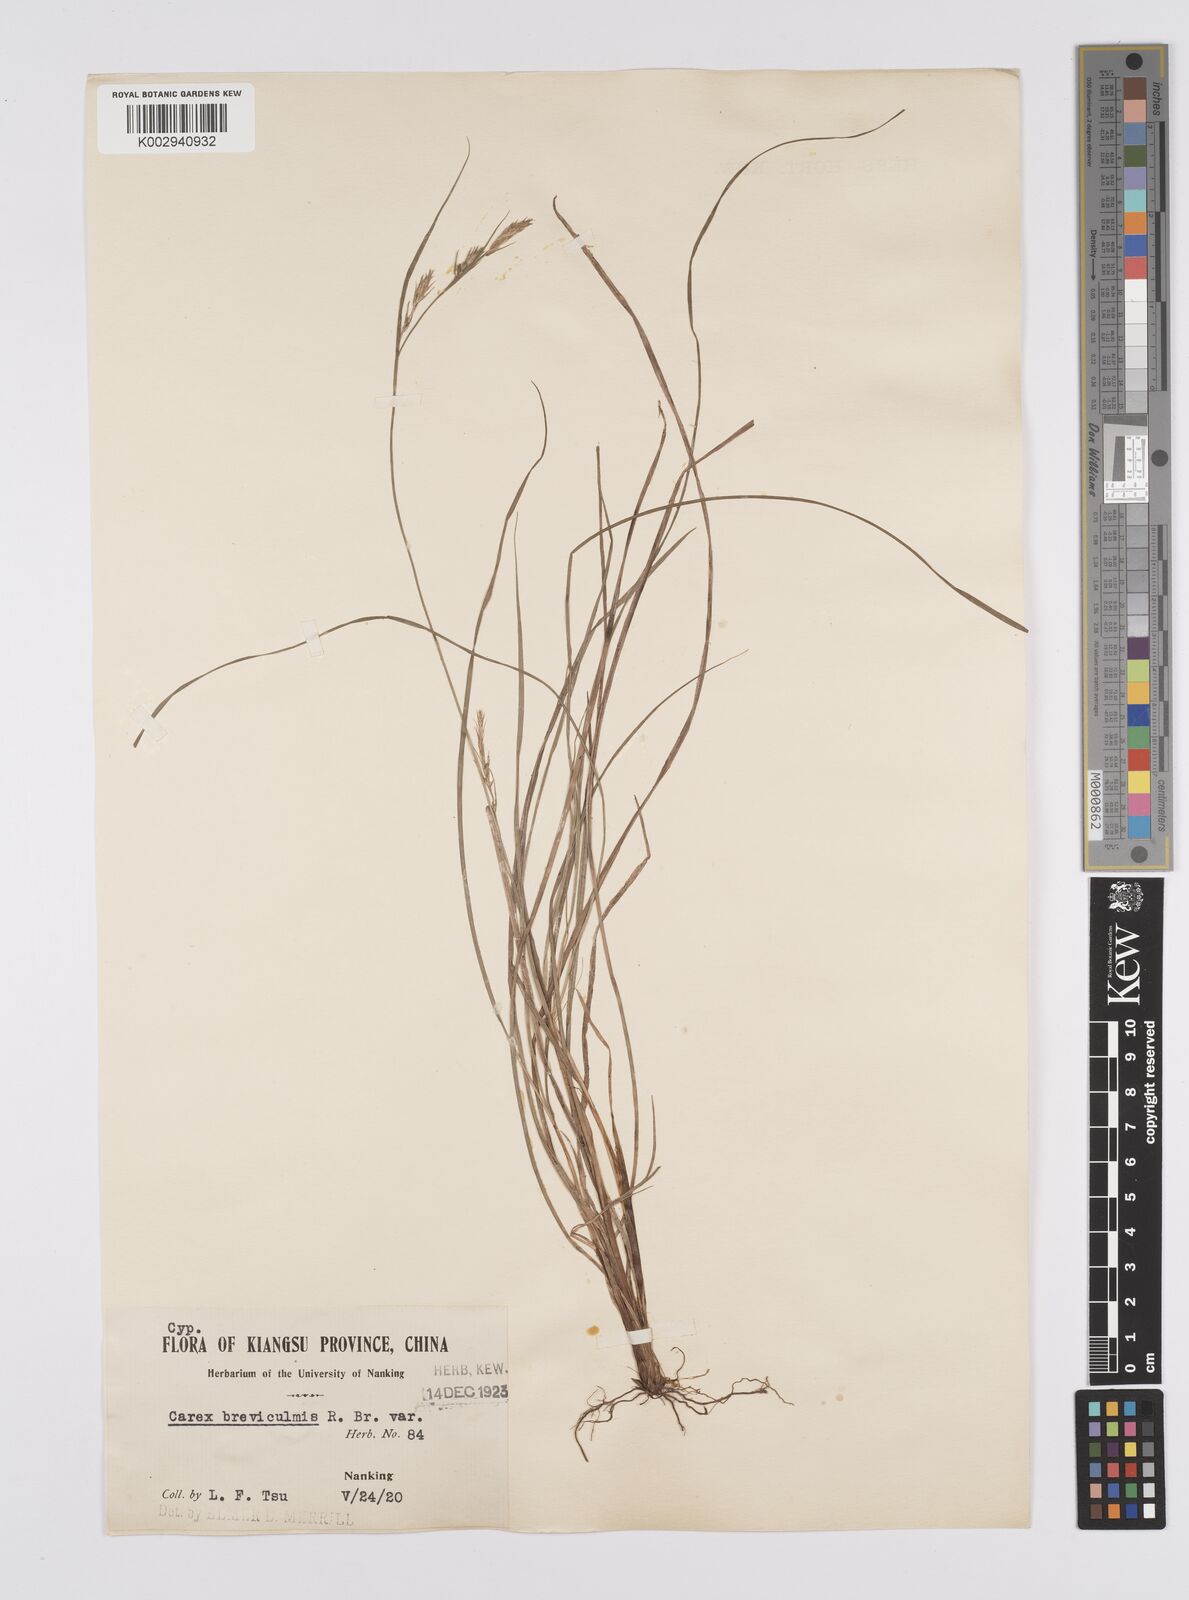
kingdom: Plantae
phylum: Tracheophyta
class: Liliopsida
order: Poales
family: Cyperaceae
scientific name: Cyperaceae
